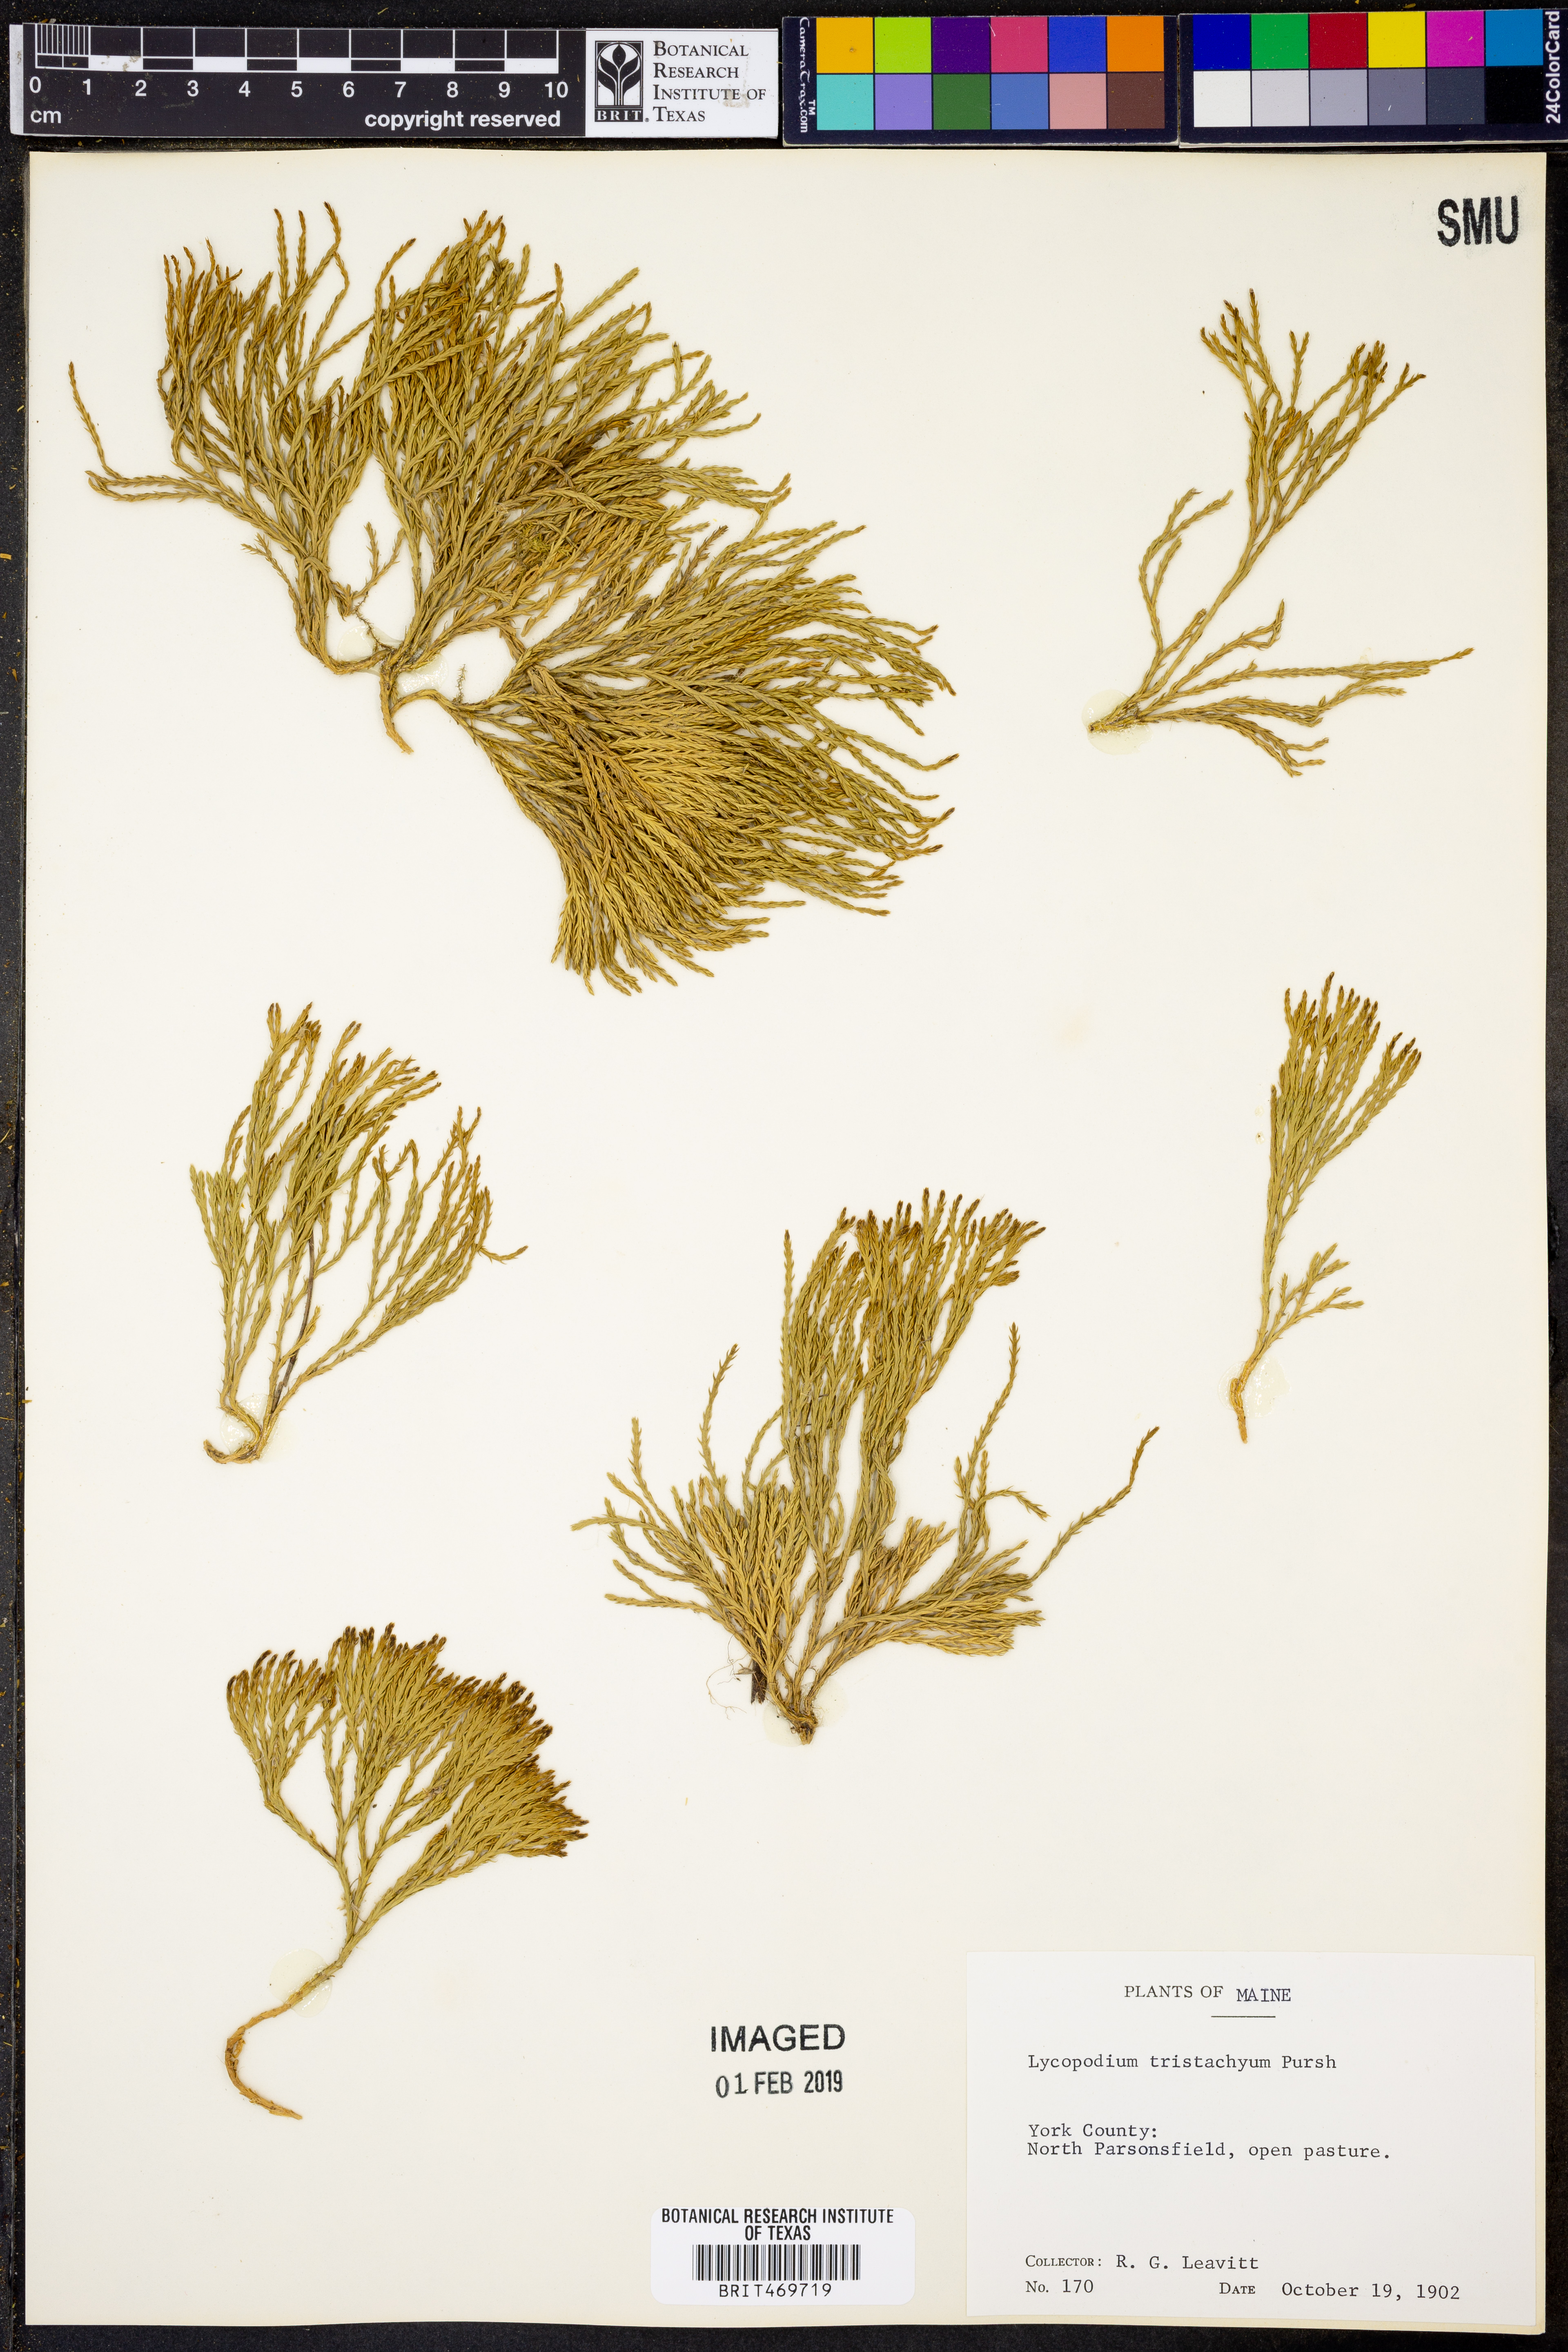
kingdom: Plantae
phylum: Tracheophyta
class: Lycopodiopsida
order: Lycopodiales
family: Lycopodiaceae
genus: Diphasiastrum
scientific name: Diphasiastrum tristachyum
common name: Blue ground-cedar
